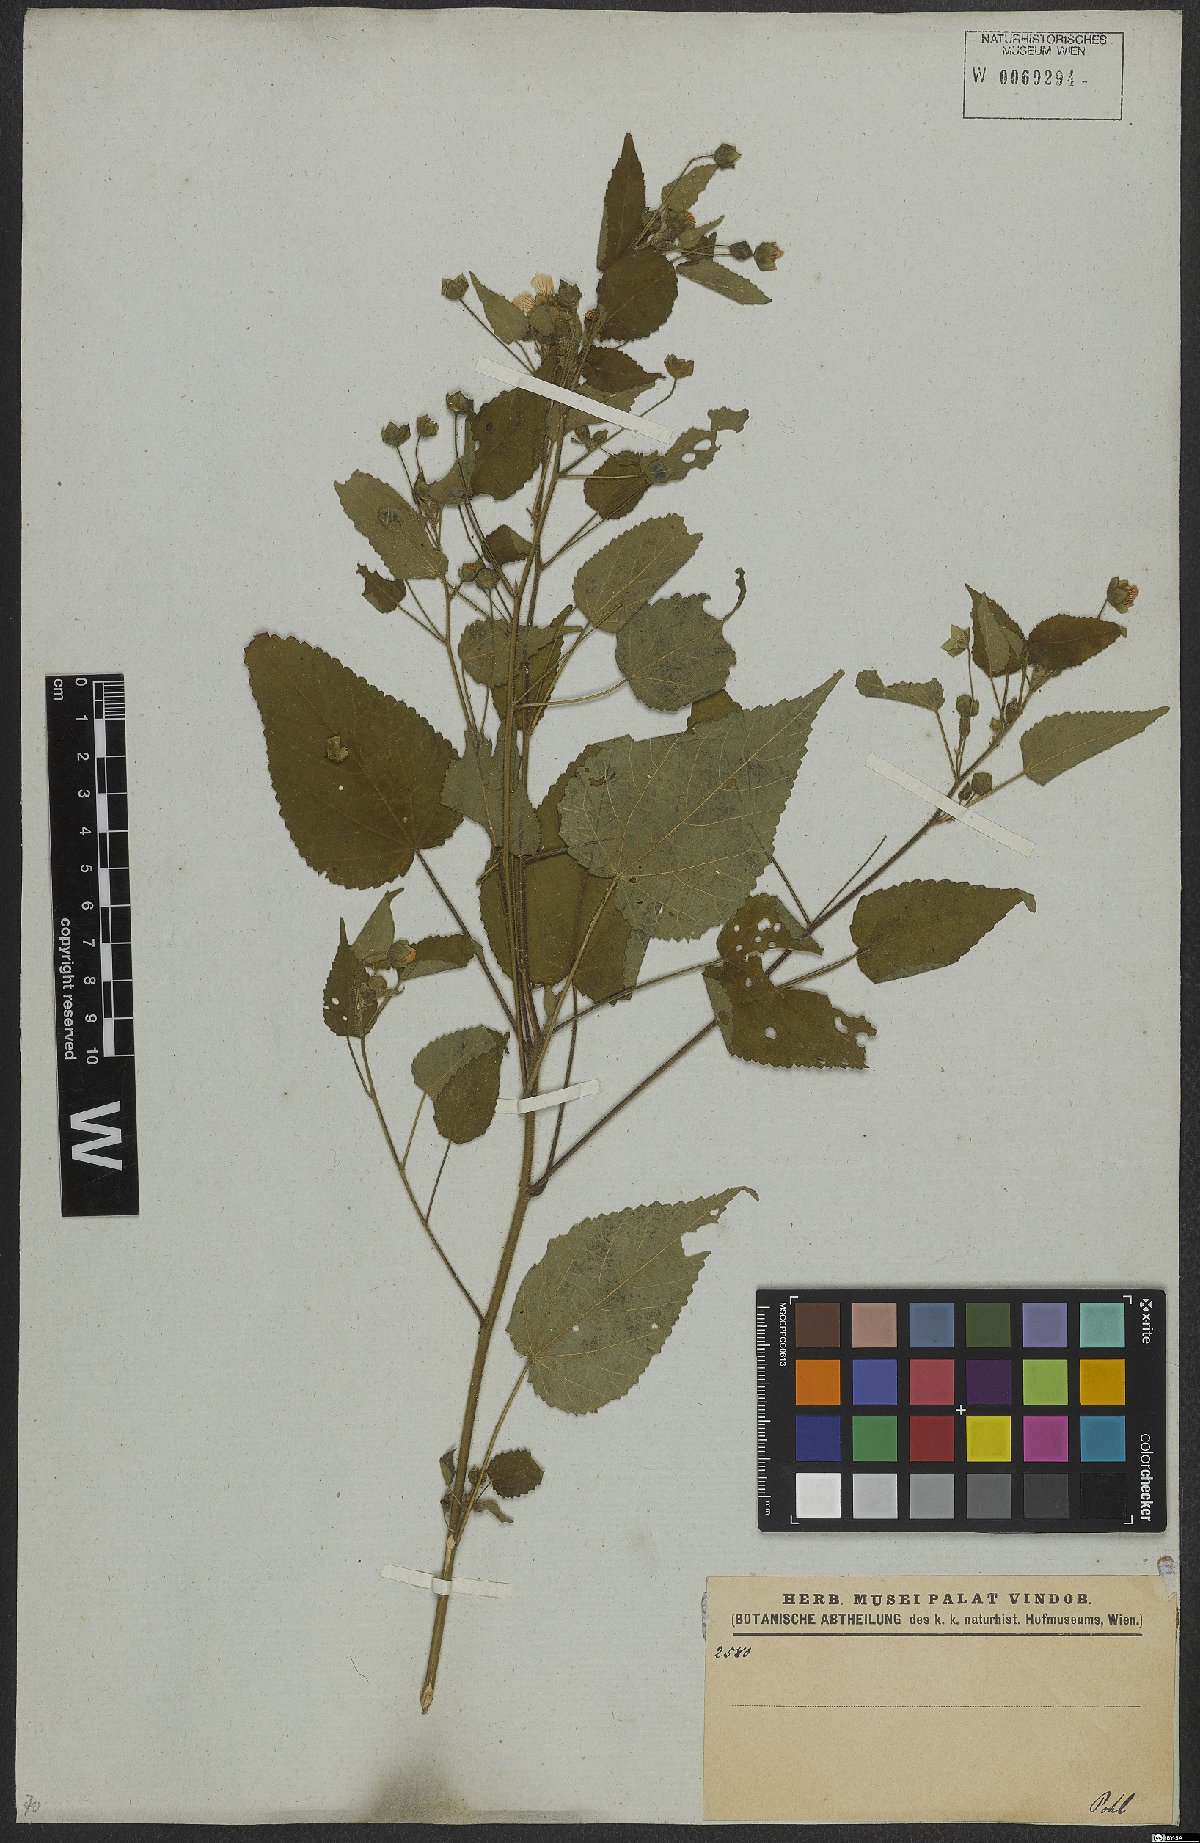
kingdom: Plantae
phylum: Tracheophyta
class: Magnoliopsida
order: Malvales
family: Malvaceae
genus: Sida
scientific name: Sida goyazensis
